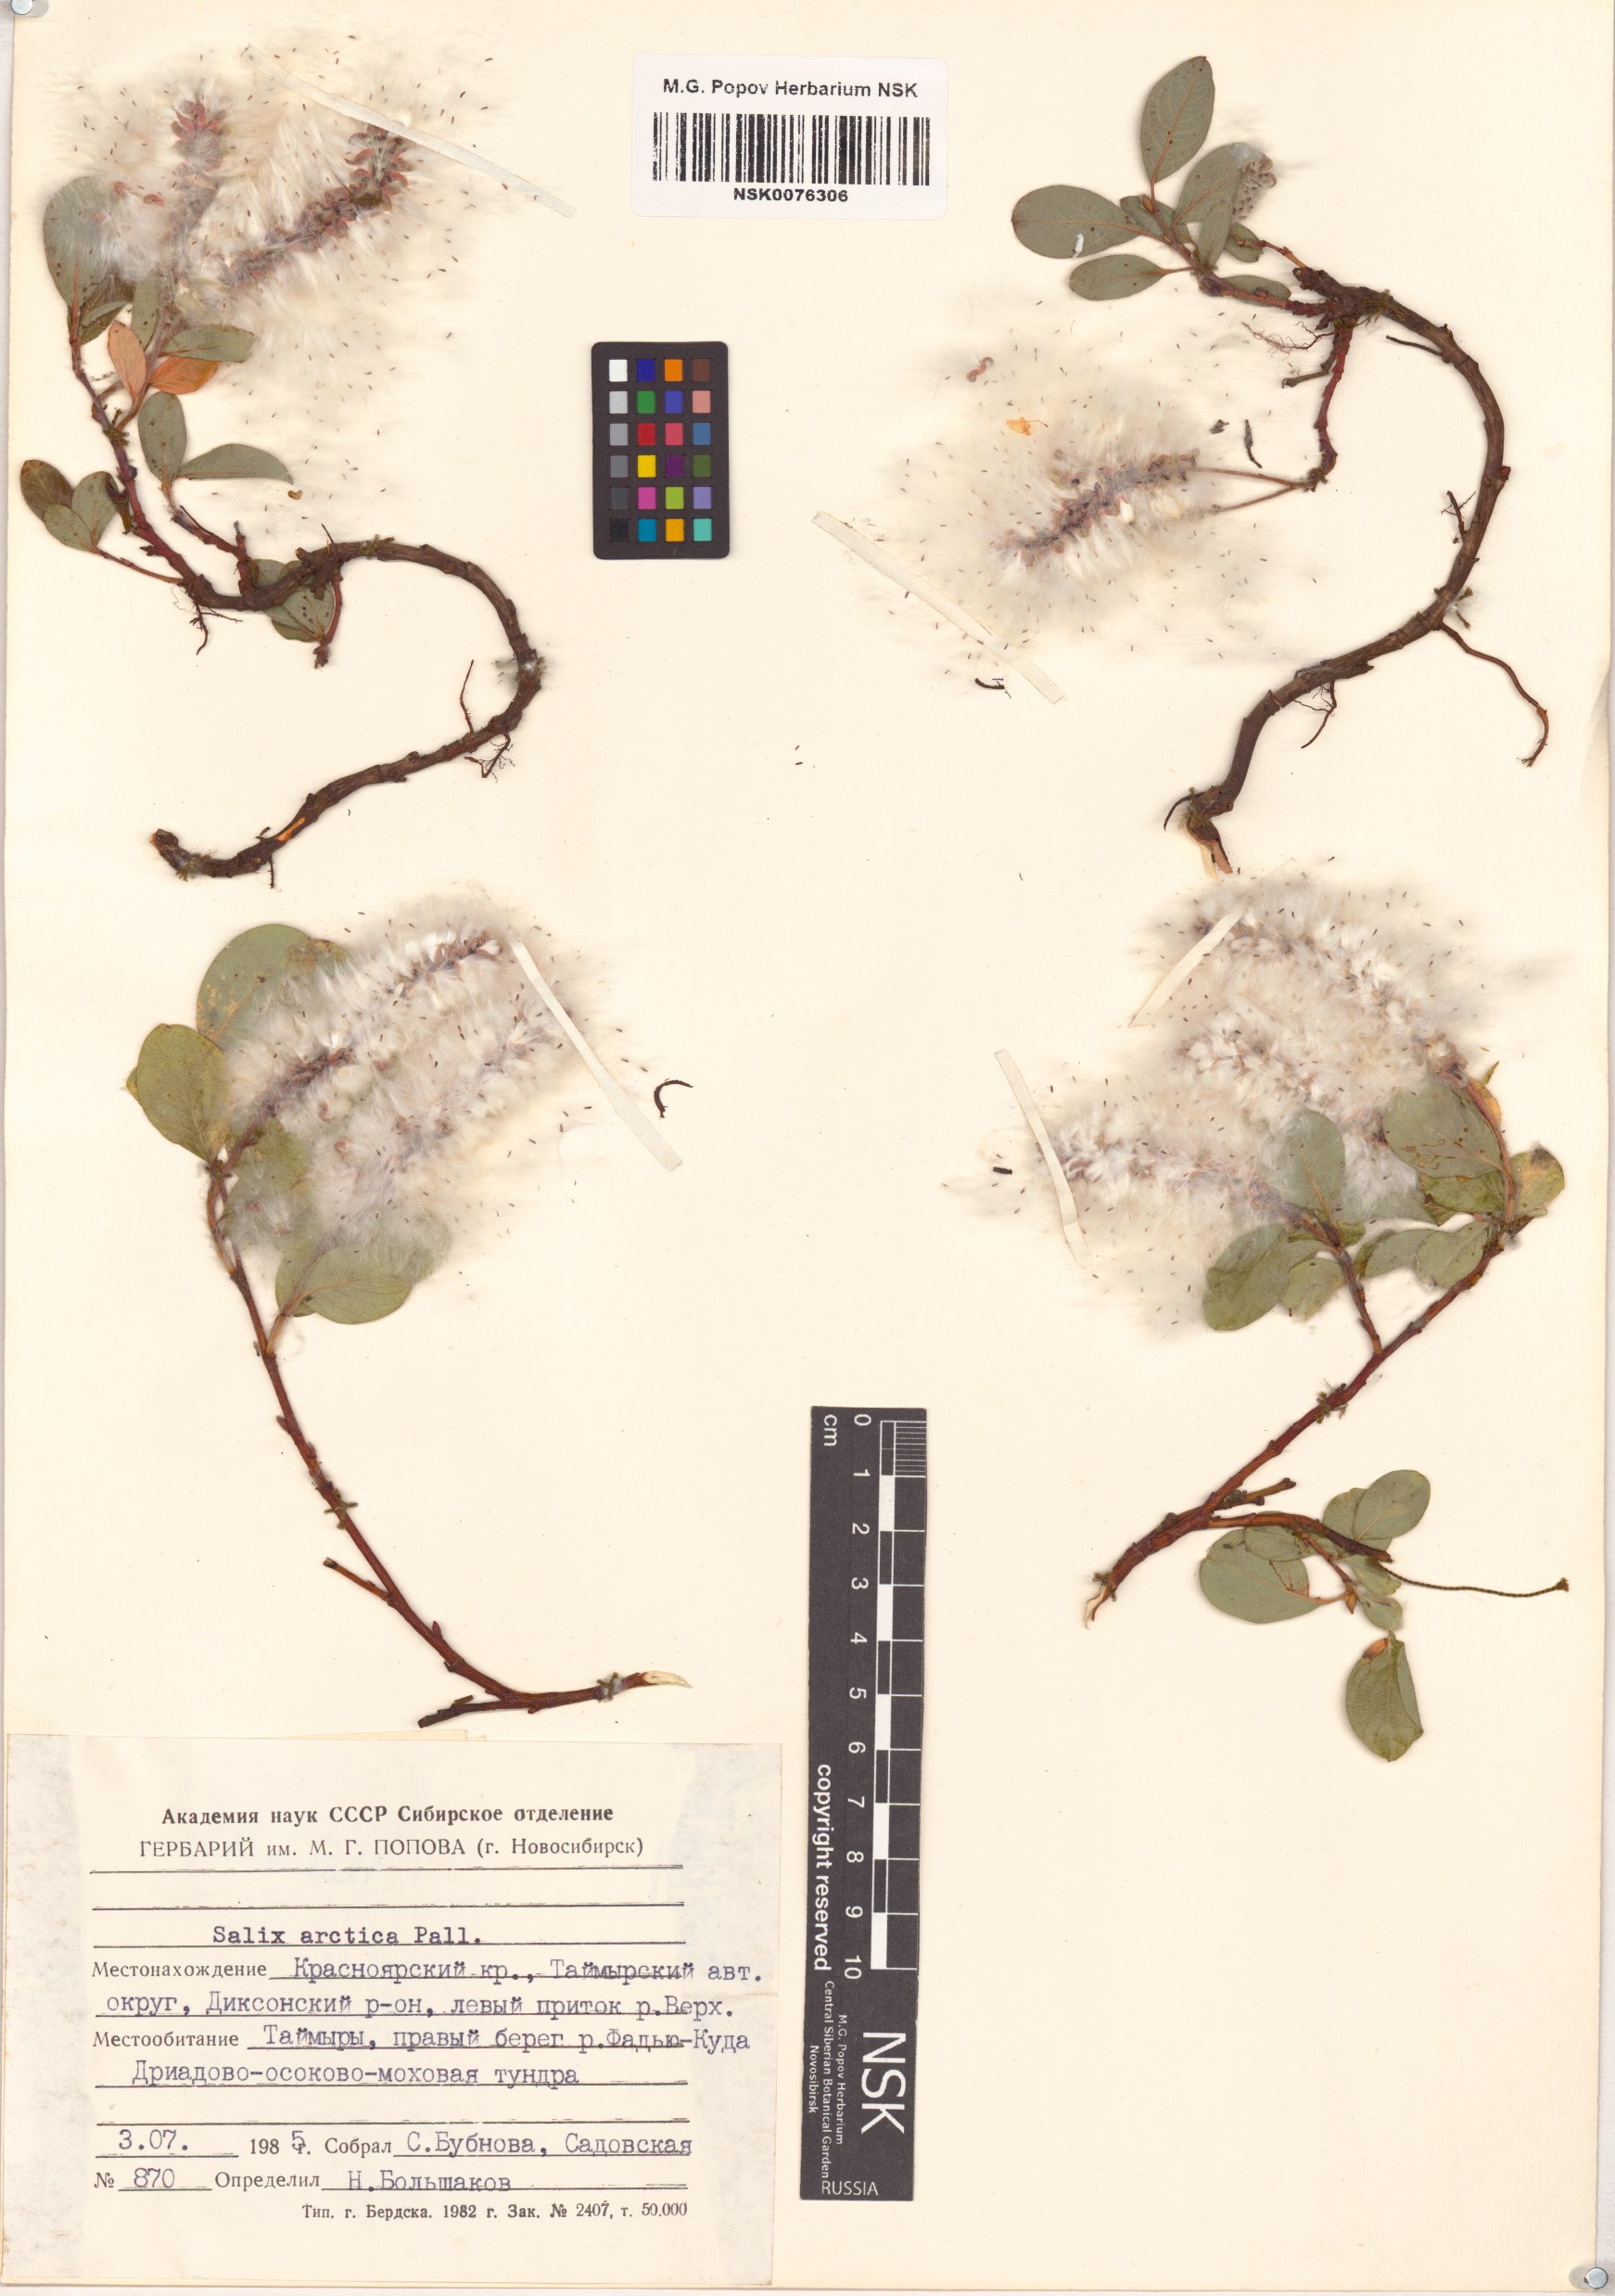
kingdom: Plantae
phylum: Tracheophyta
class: Magnoliopsida
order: Malpighiales
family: Salicaceae
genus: Salix
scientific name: Salix arctica
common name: Arctic willow
